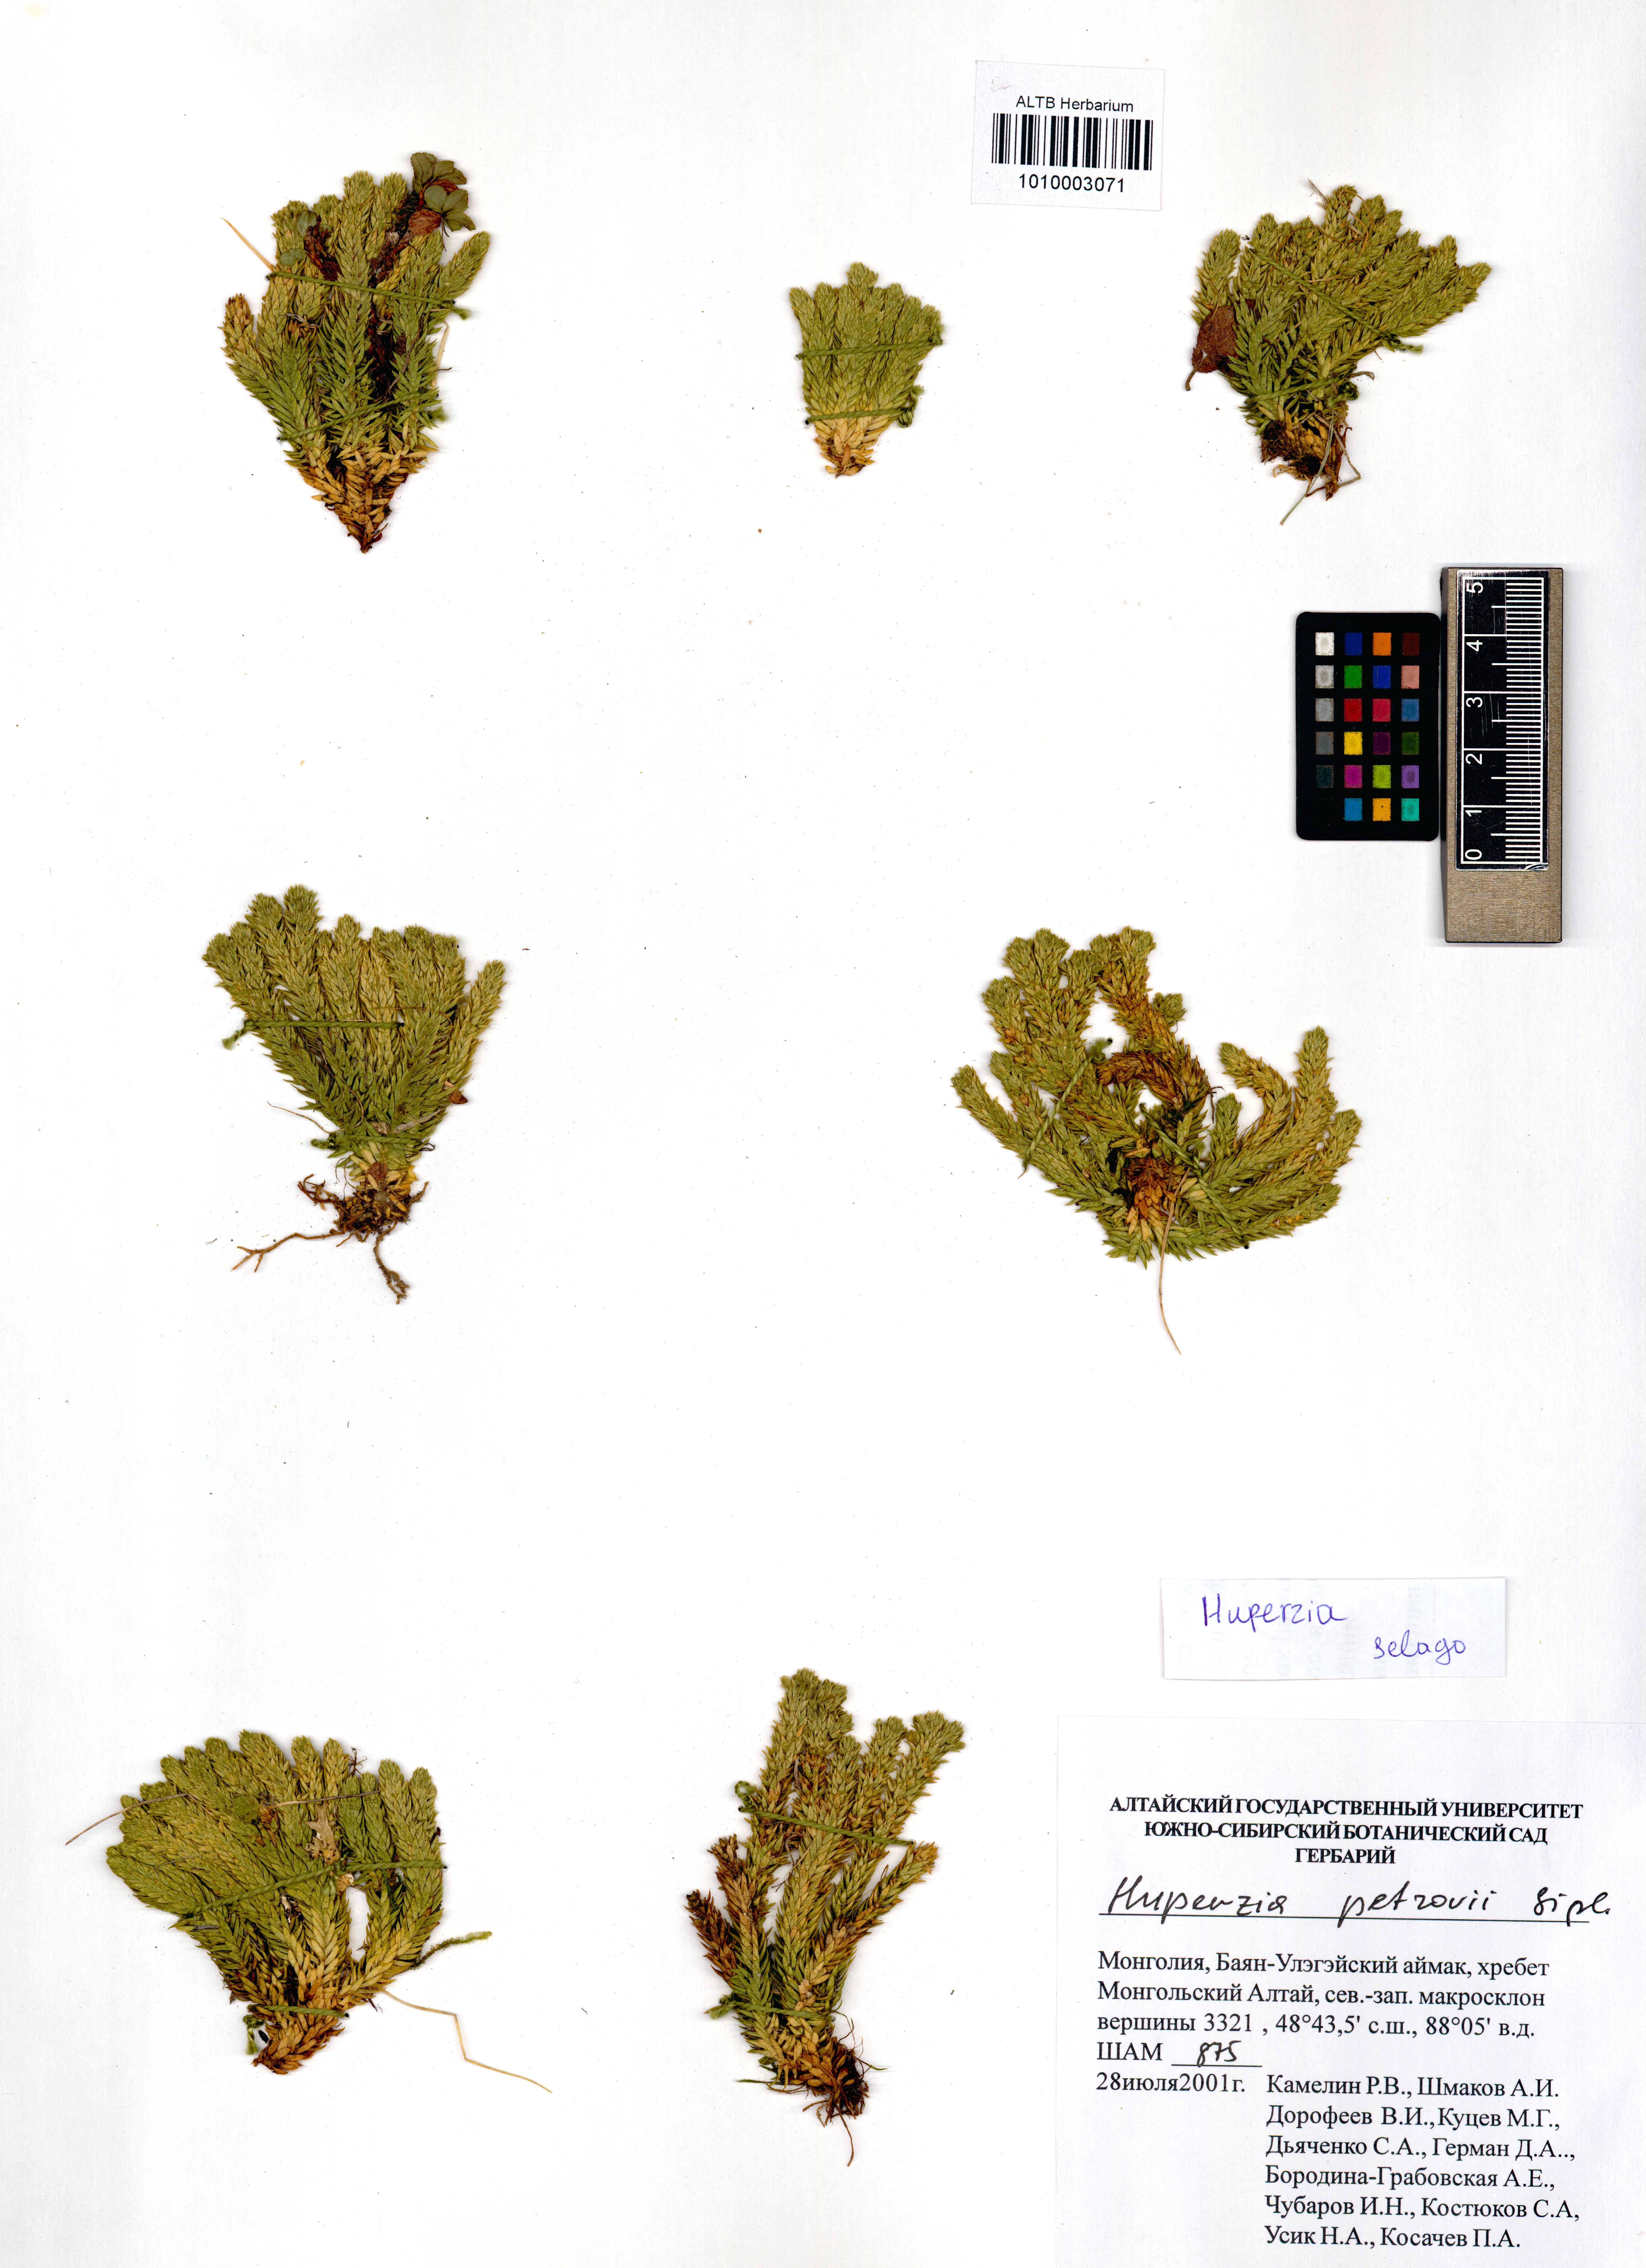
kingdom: Plantae
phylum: Tracheophyta
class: Lycopodiopsida
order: Lycopodiales
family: Lycopodiaceae
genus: Huperzia
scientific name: Huperzia selago
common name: Northern firmoss
